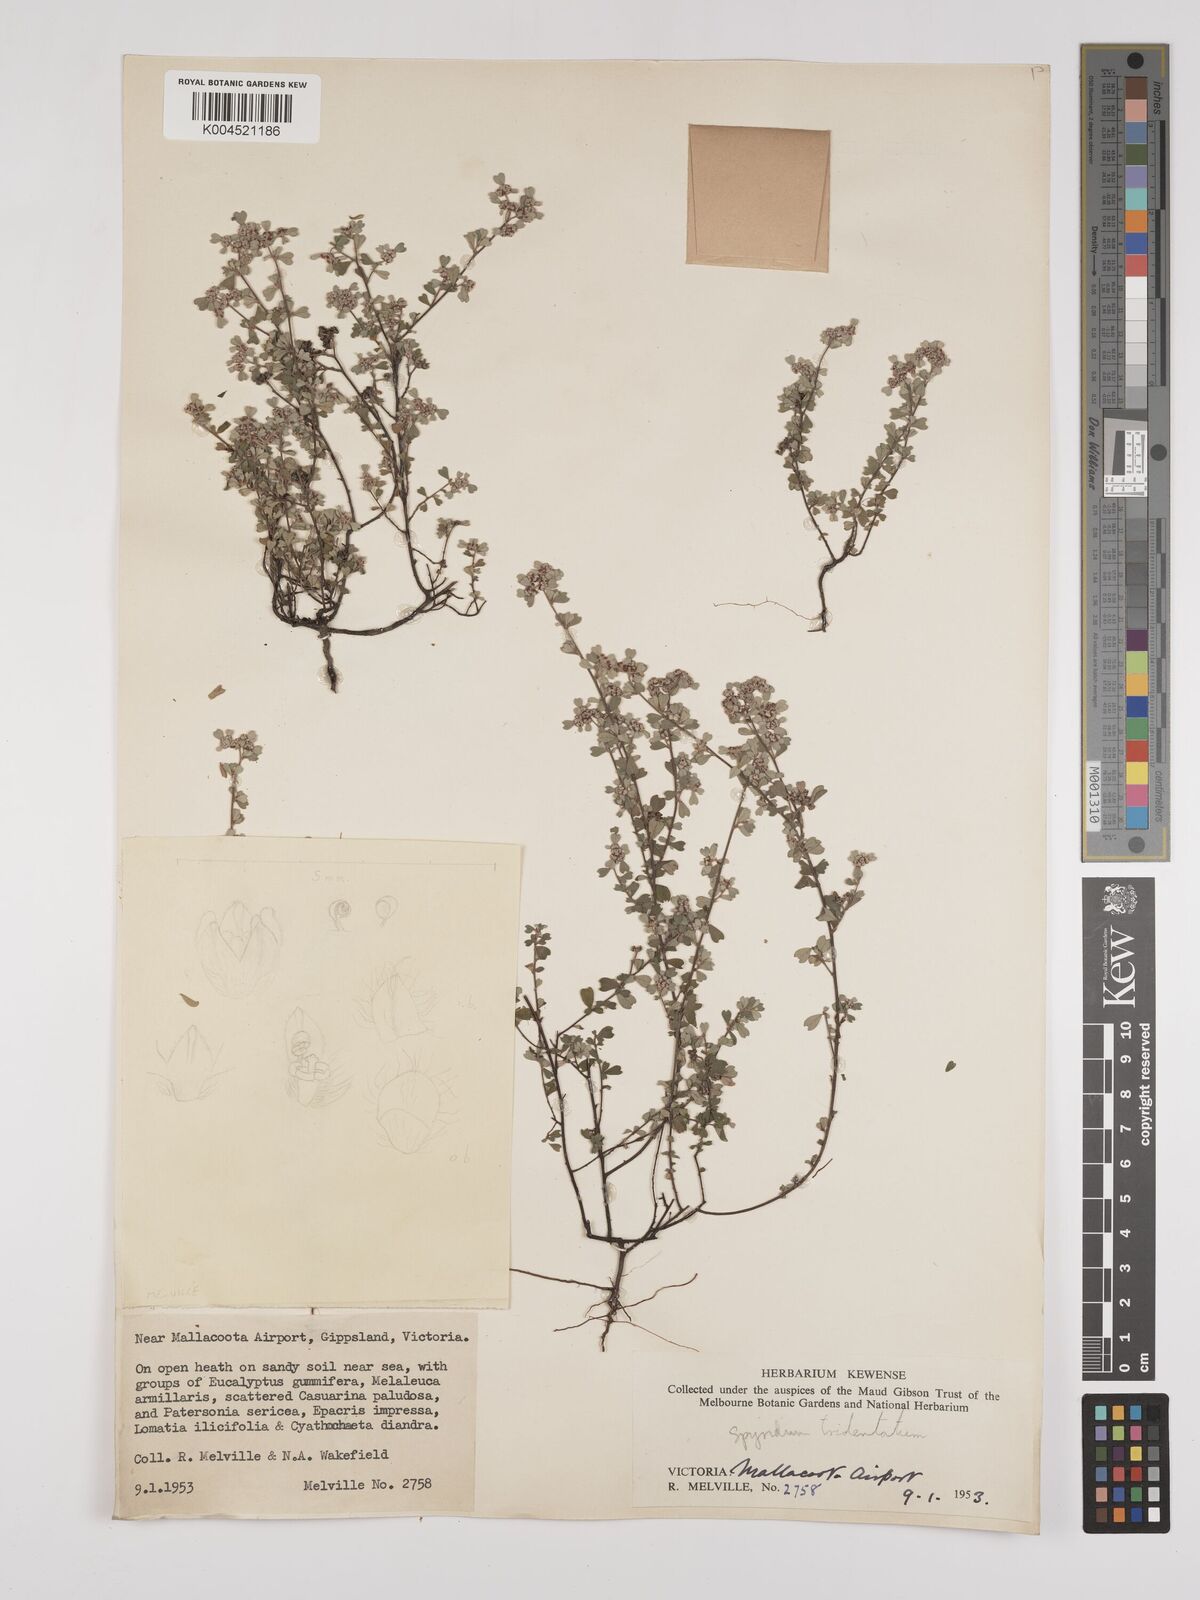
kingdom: Plantae
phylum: Tracheophyta
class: Magnoliopsida
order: Rosales
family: Rhamnaceae
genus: Stenanthemum
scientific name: Stenanthemum tridentatum
